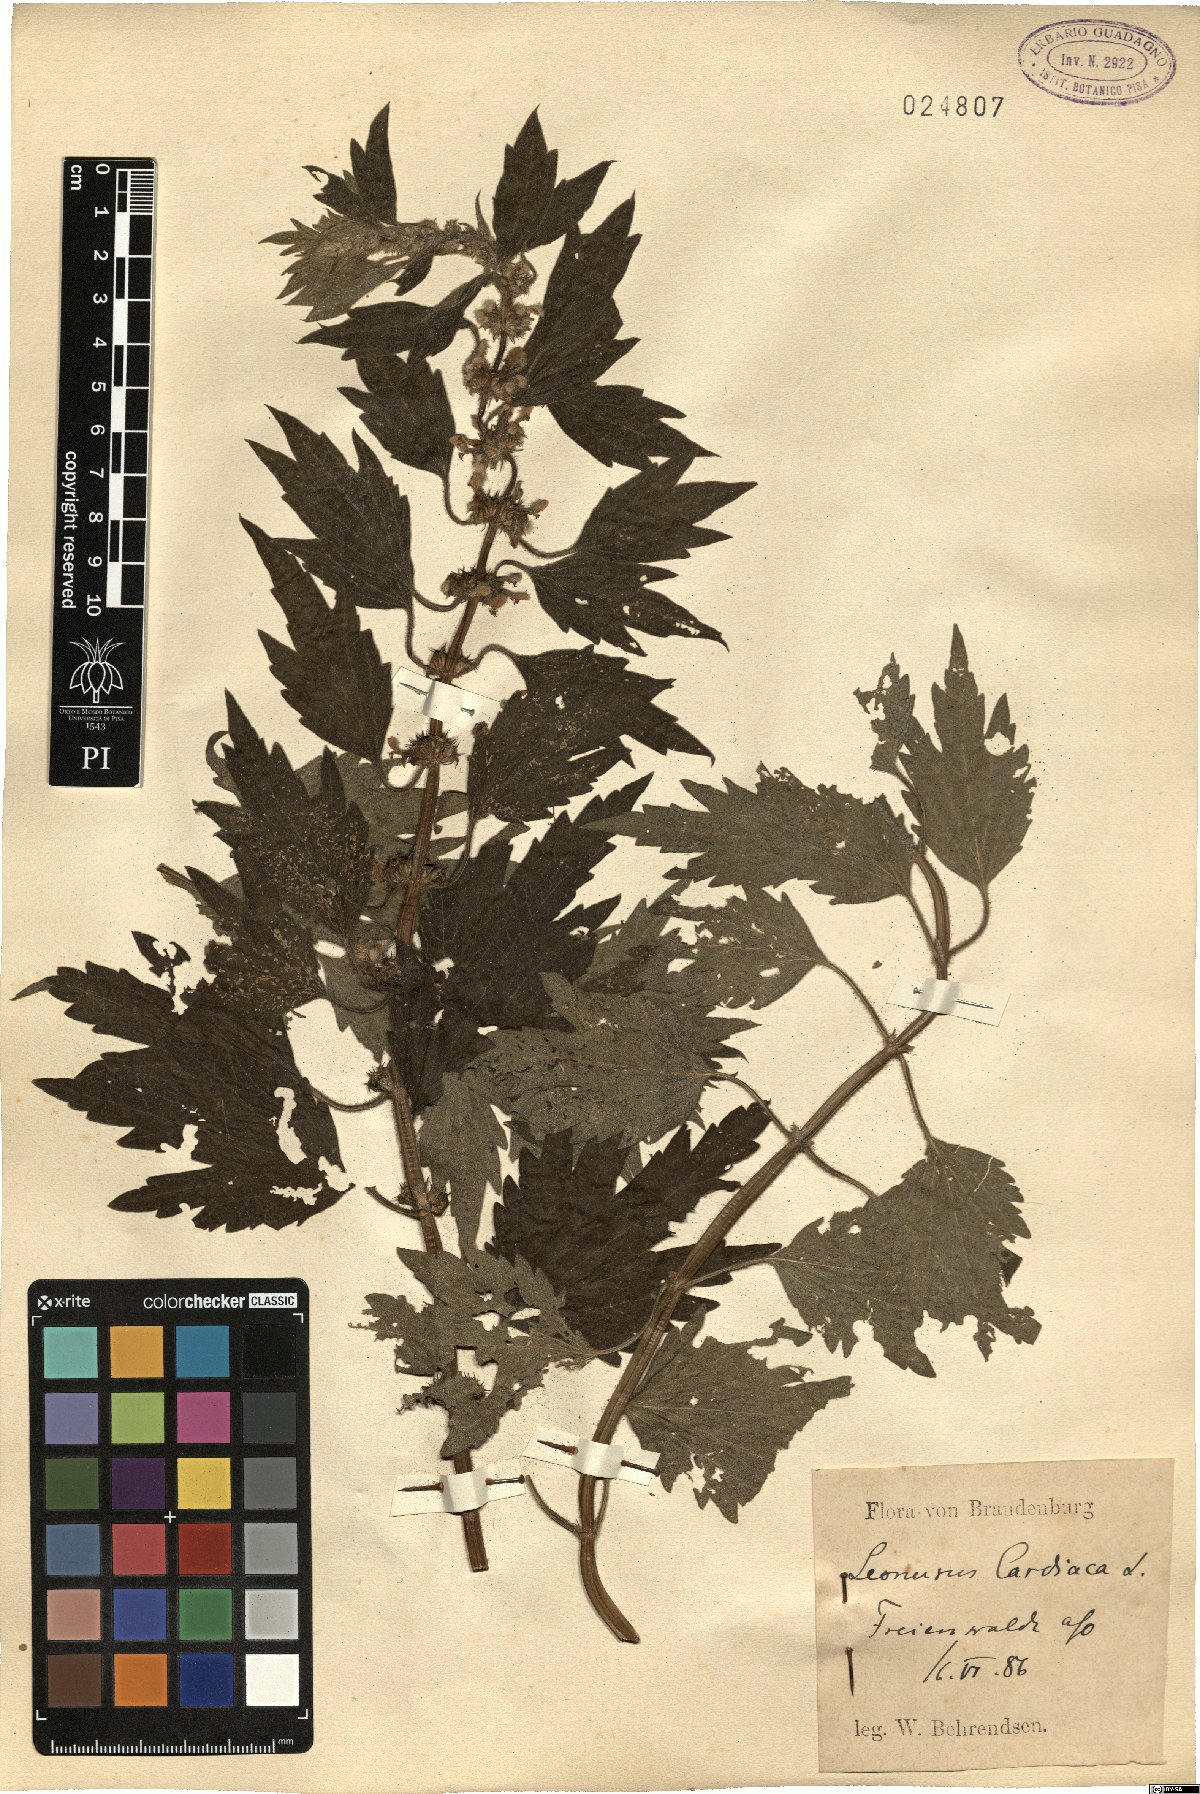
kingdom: Plantae
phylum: Tracheophyta
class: Magnoliopsida
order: Lamiales
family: Lamiaceae
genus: Leonurus
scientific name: Leonurus
